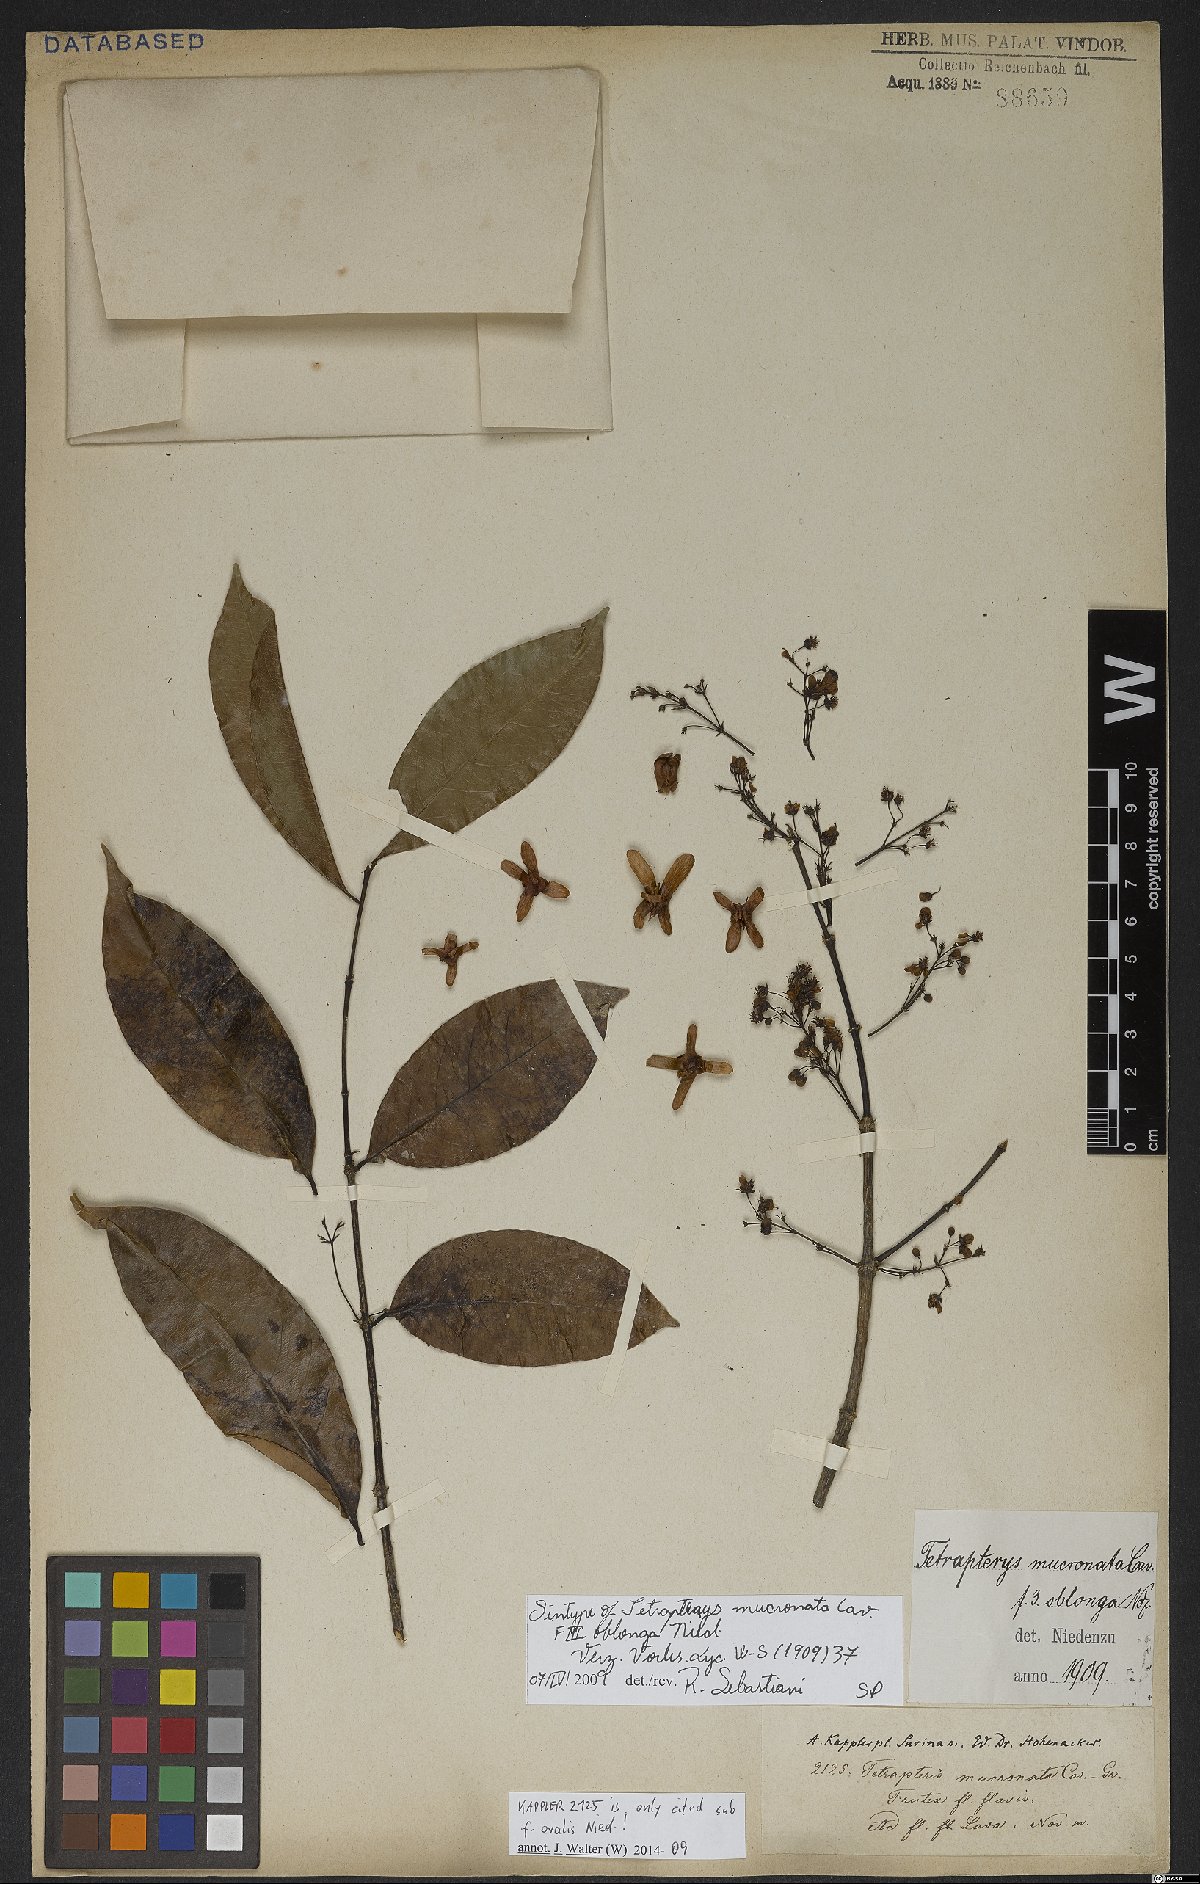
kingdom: Plantae
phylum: Tracheophyta
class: Magnoliopsida
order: Malpighiales
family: Malpighiaceae
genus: Tetrapterys
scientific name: Tetrapterys mucronata
